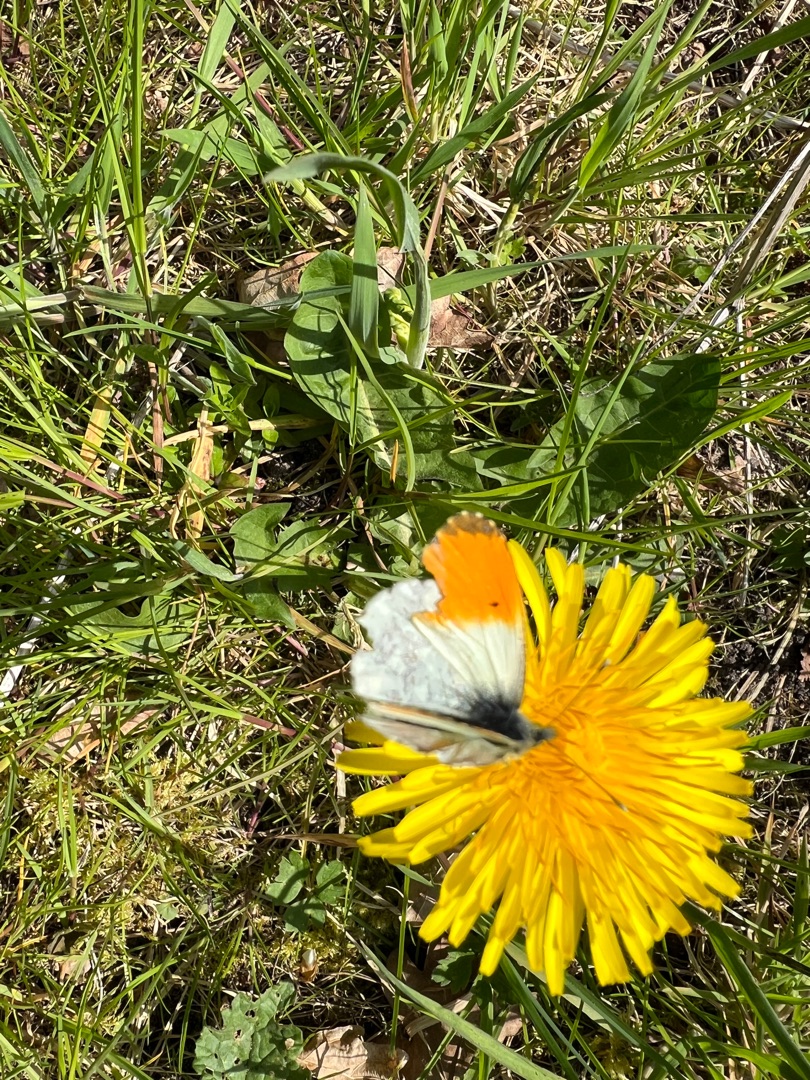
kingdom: Animalia
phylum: Arthropoda
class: Insecta
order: Lepidoptera
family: Pieridae
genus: Anthocharis
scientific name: Anthocharis cardamines
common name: Aurora
